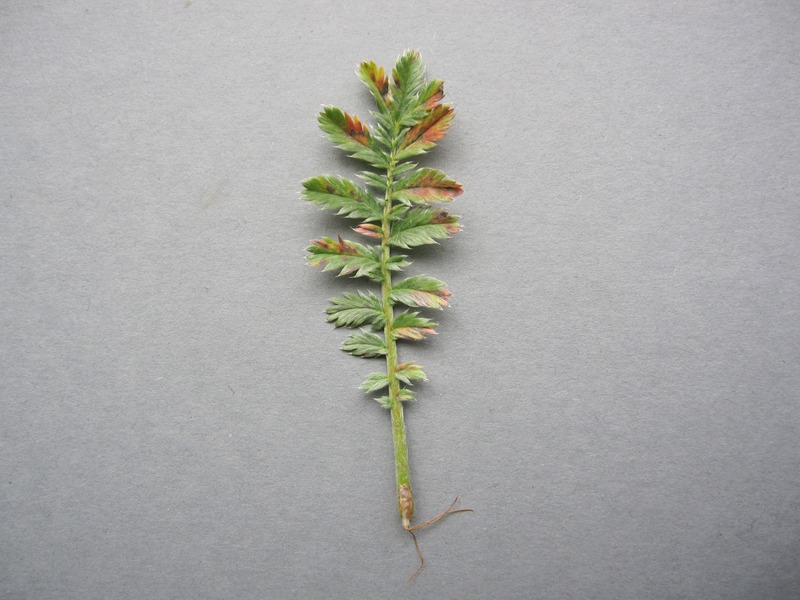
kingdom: Fungi
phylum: Ascomycota
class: Dothideomycetes
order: Mycosphaerellales
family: Mycosphaerellaceae
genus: Ramularia
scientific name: Ramularia grevilleana
